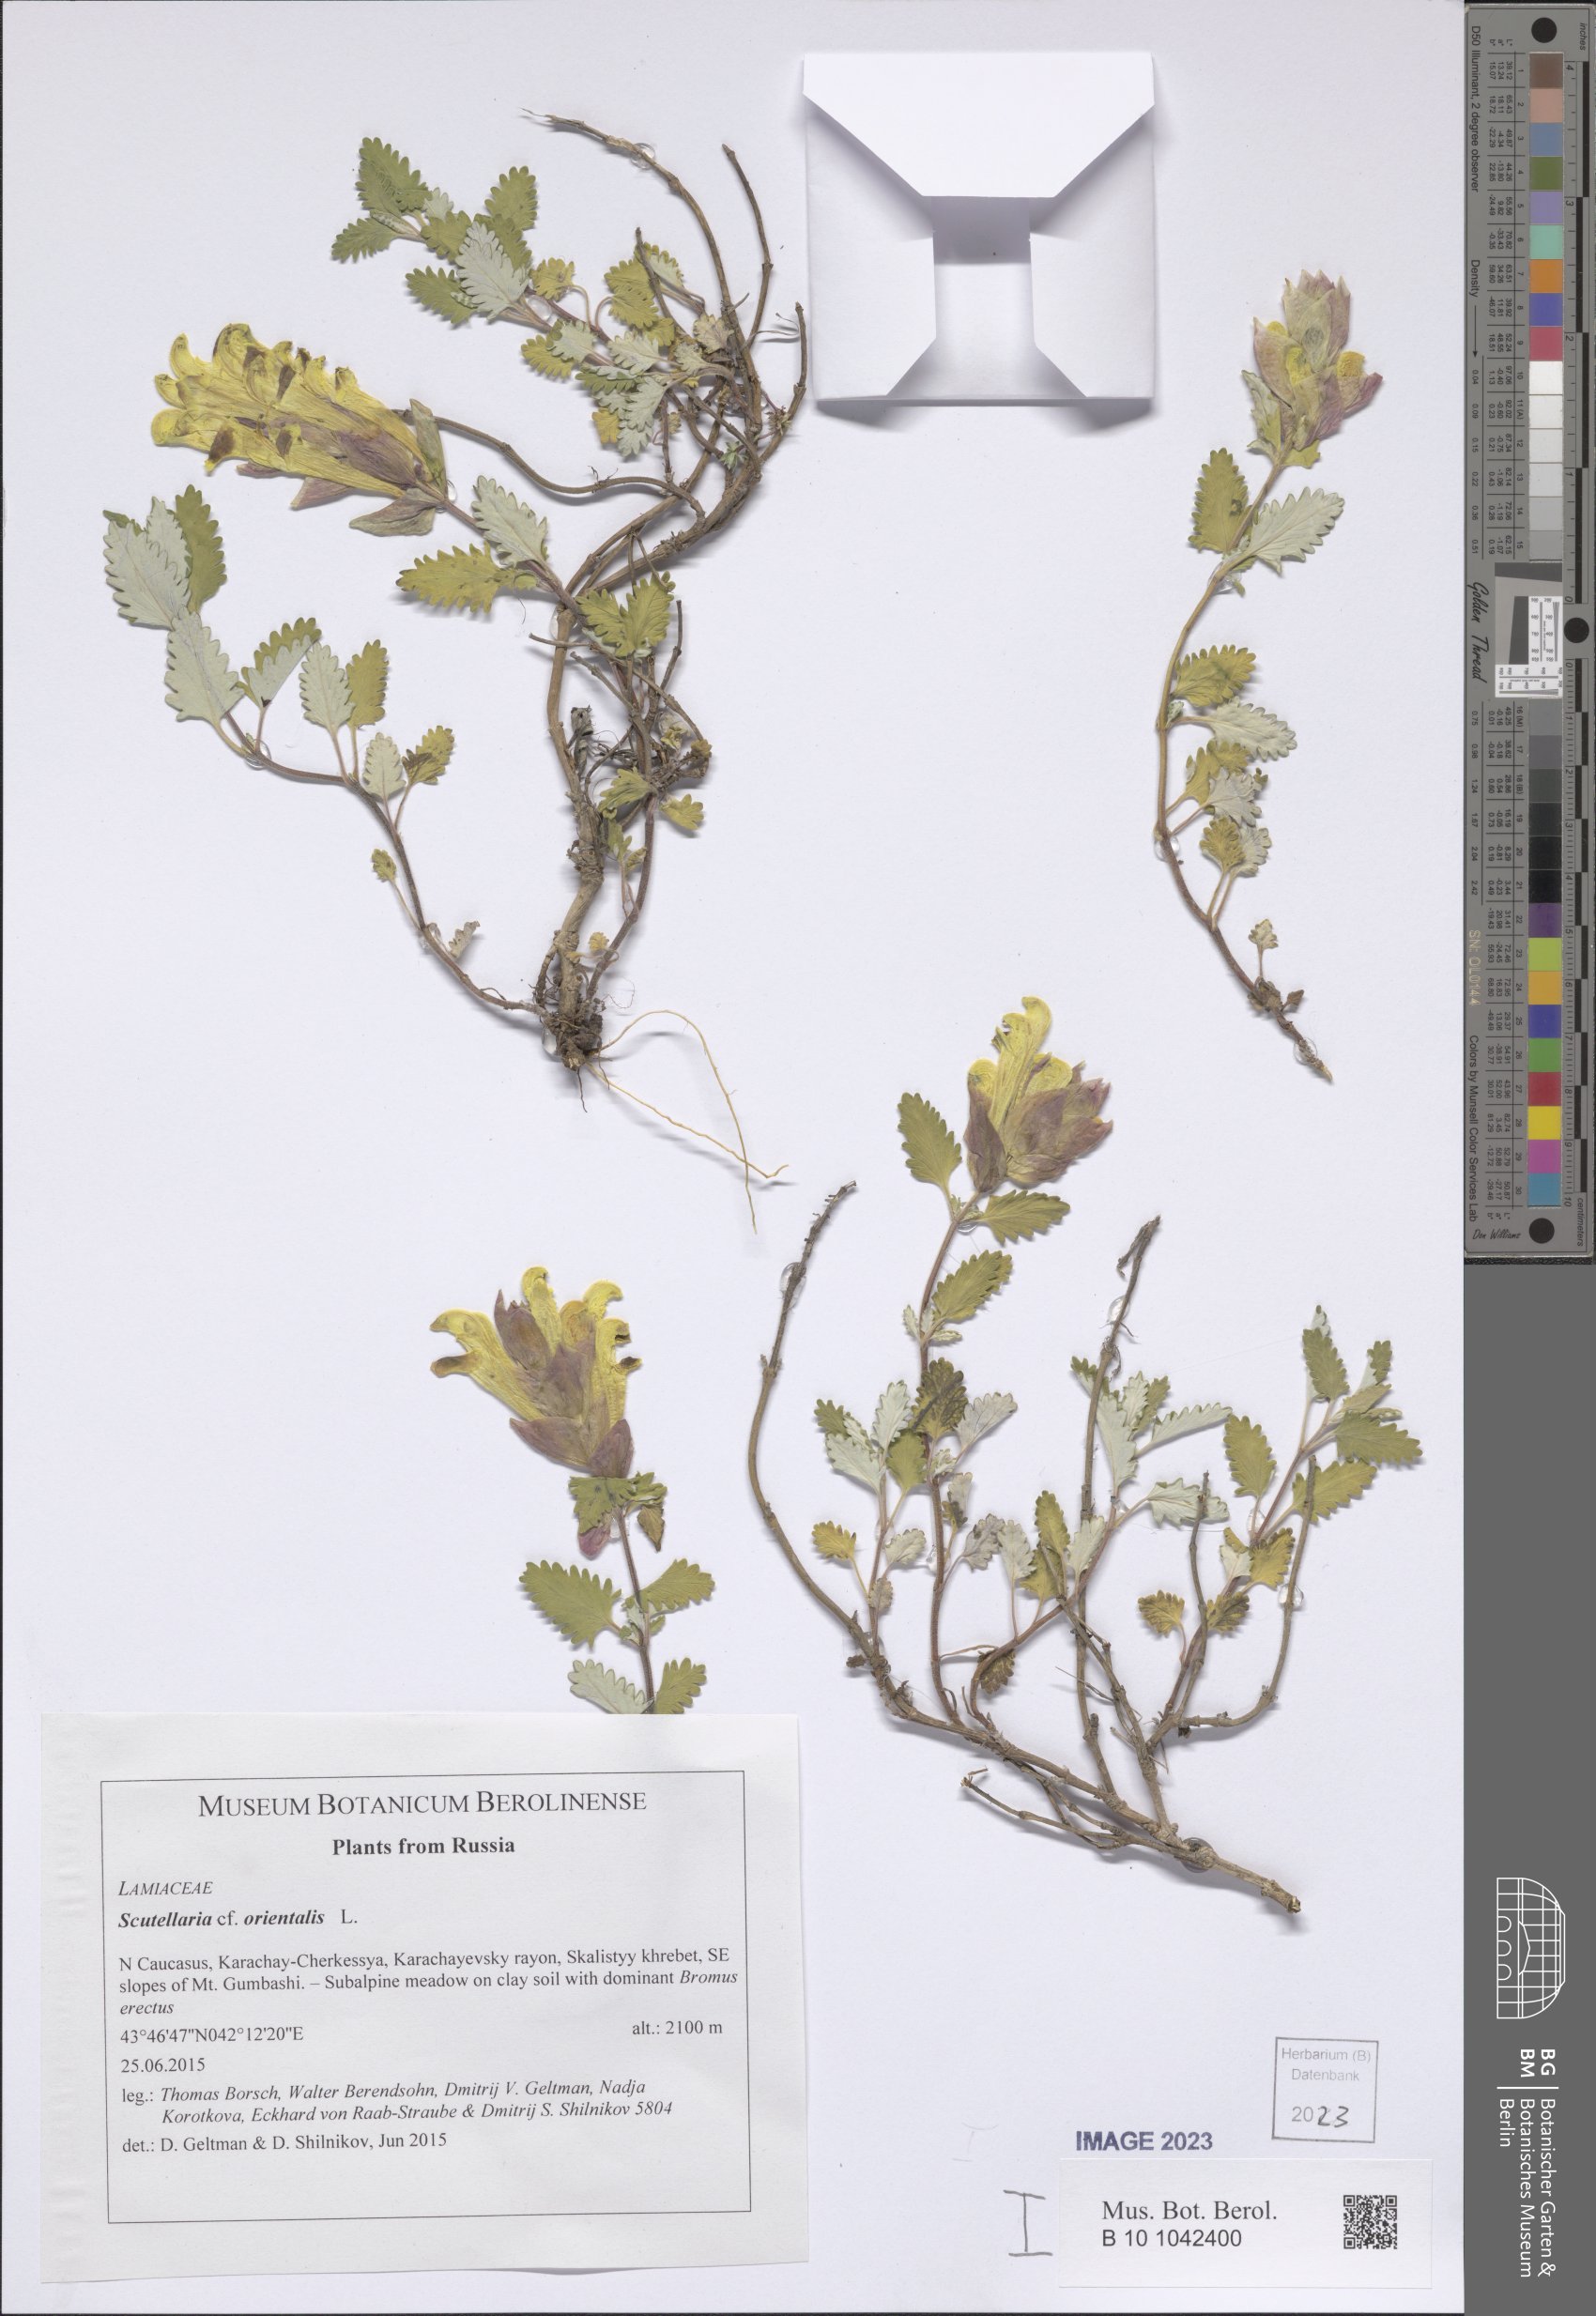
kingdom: Plantae
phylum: Tracheophyta
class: Magnoliopsida
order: Lamiales
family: Lamiaceae
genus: Scutellaria
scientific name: Scutellaria orientalis
